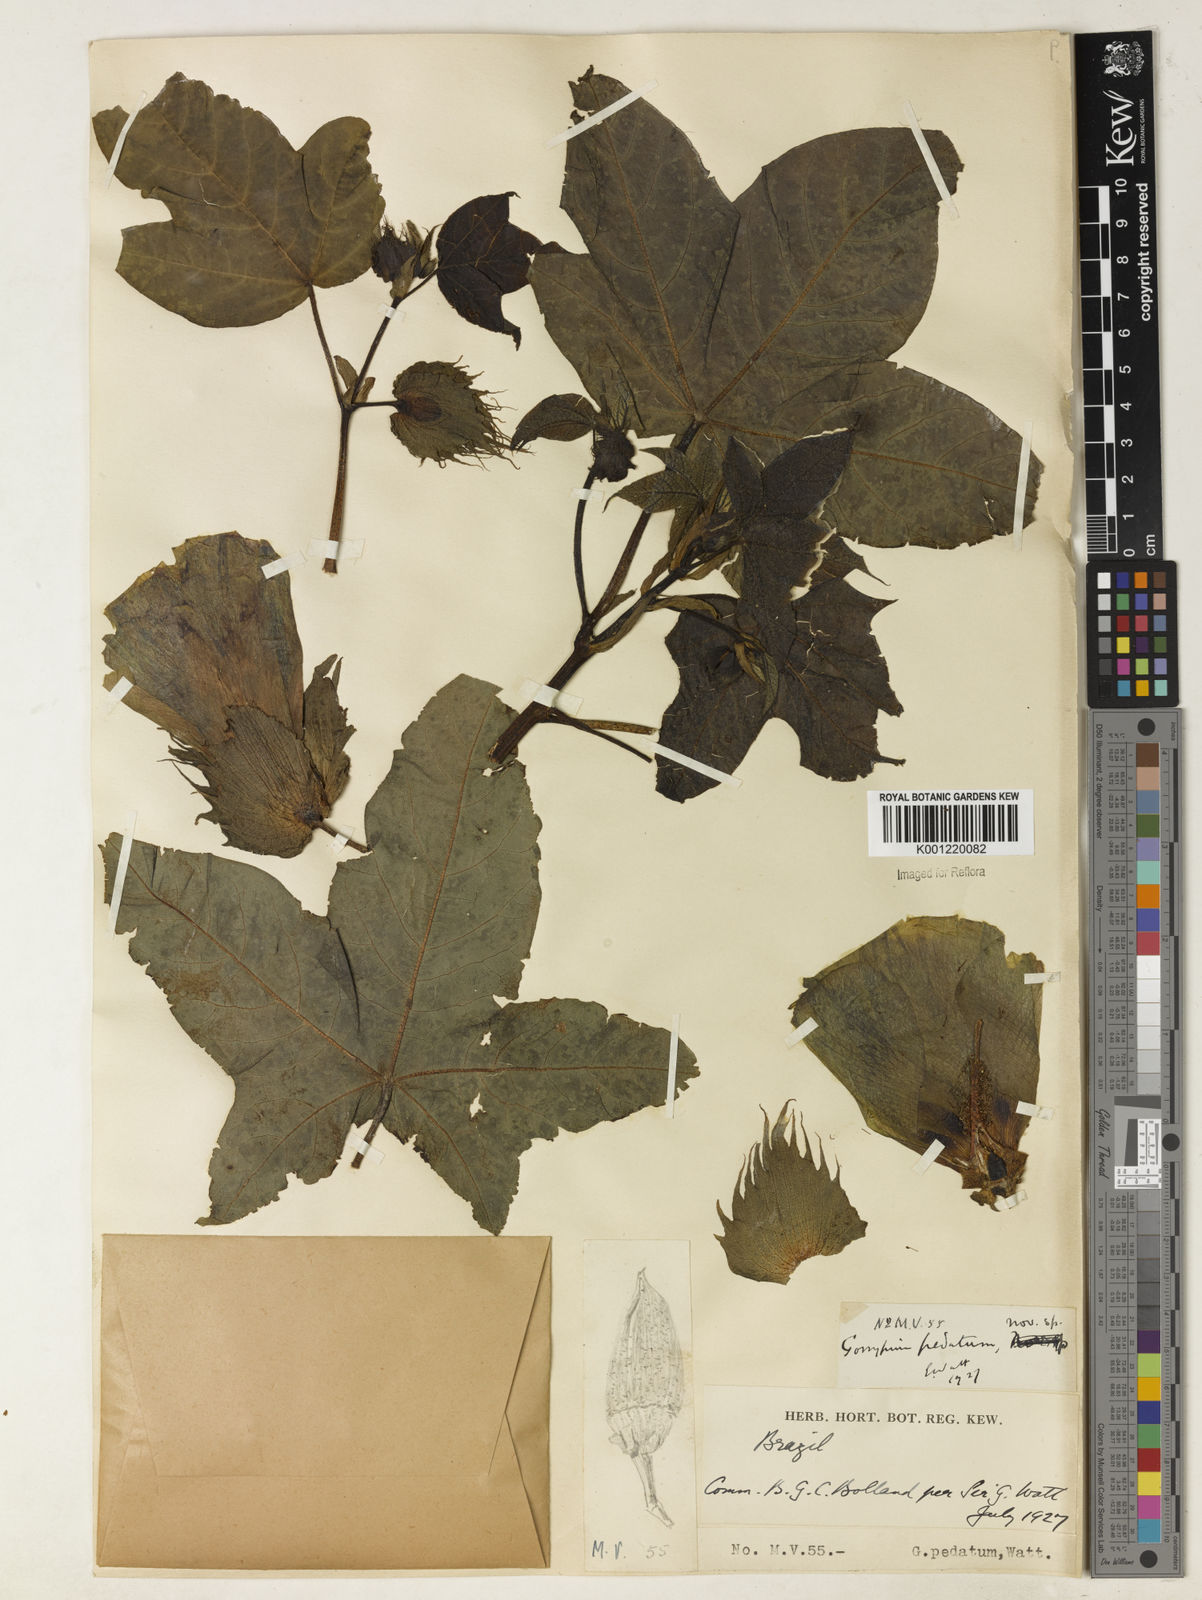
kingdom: Plantae
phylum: Tracheophyta
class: Magnoliopsida
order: Malvales
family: Malvaceae
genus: Gossypium
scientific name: Gossypium barbadense
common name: Creole cotton
